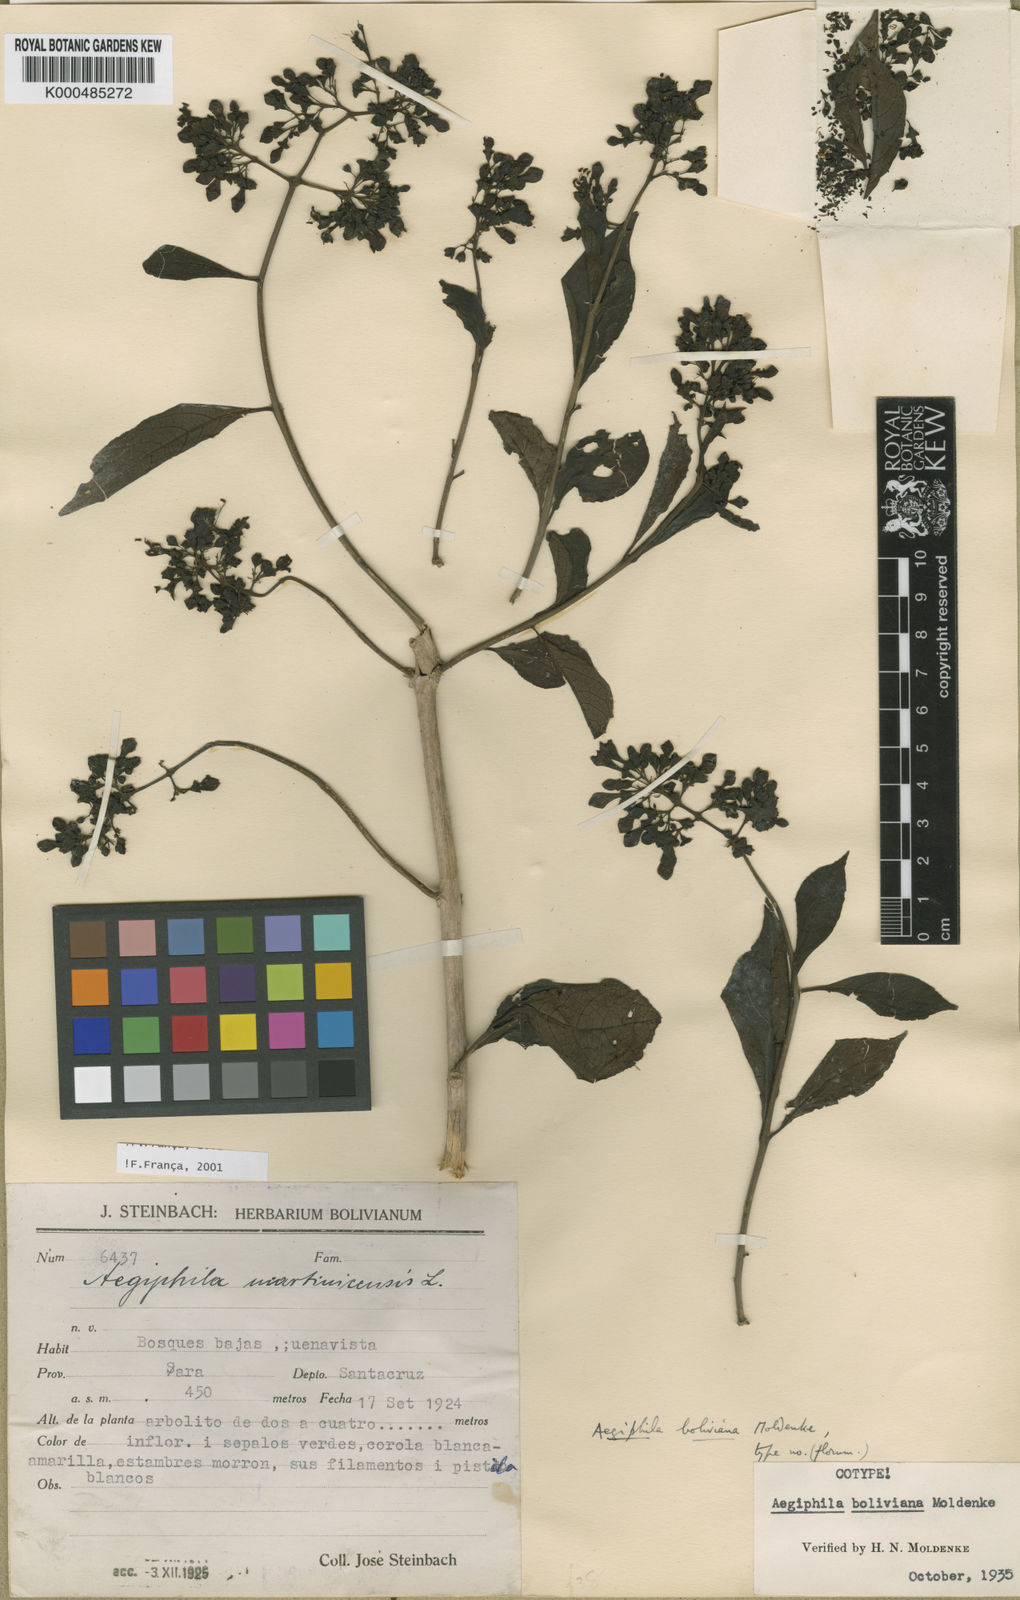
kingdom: Plantae
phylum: Tracheophyta
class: Magnoliopsida
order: Lamiales
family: Lamiaceae
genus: Aegiphila
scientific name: Aegiphila boliviana
